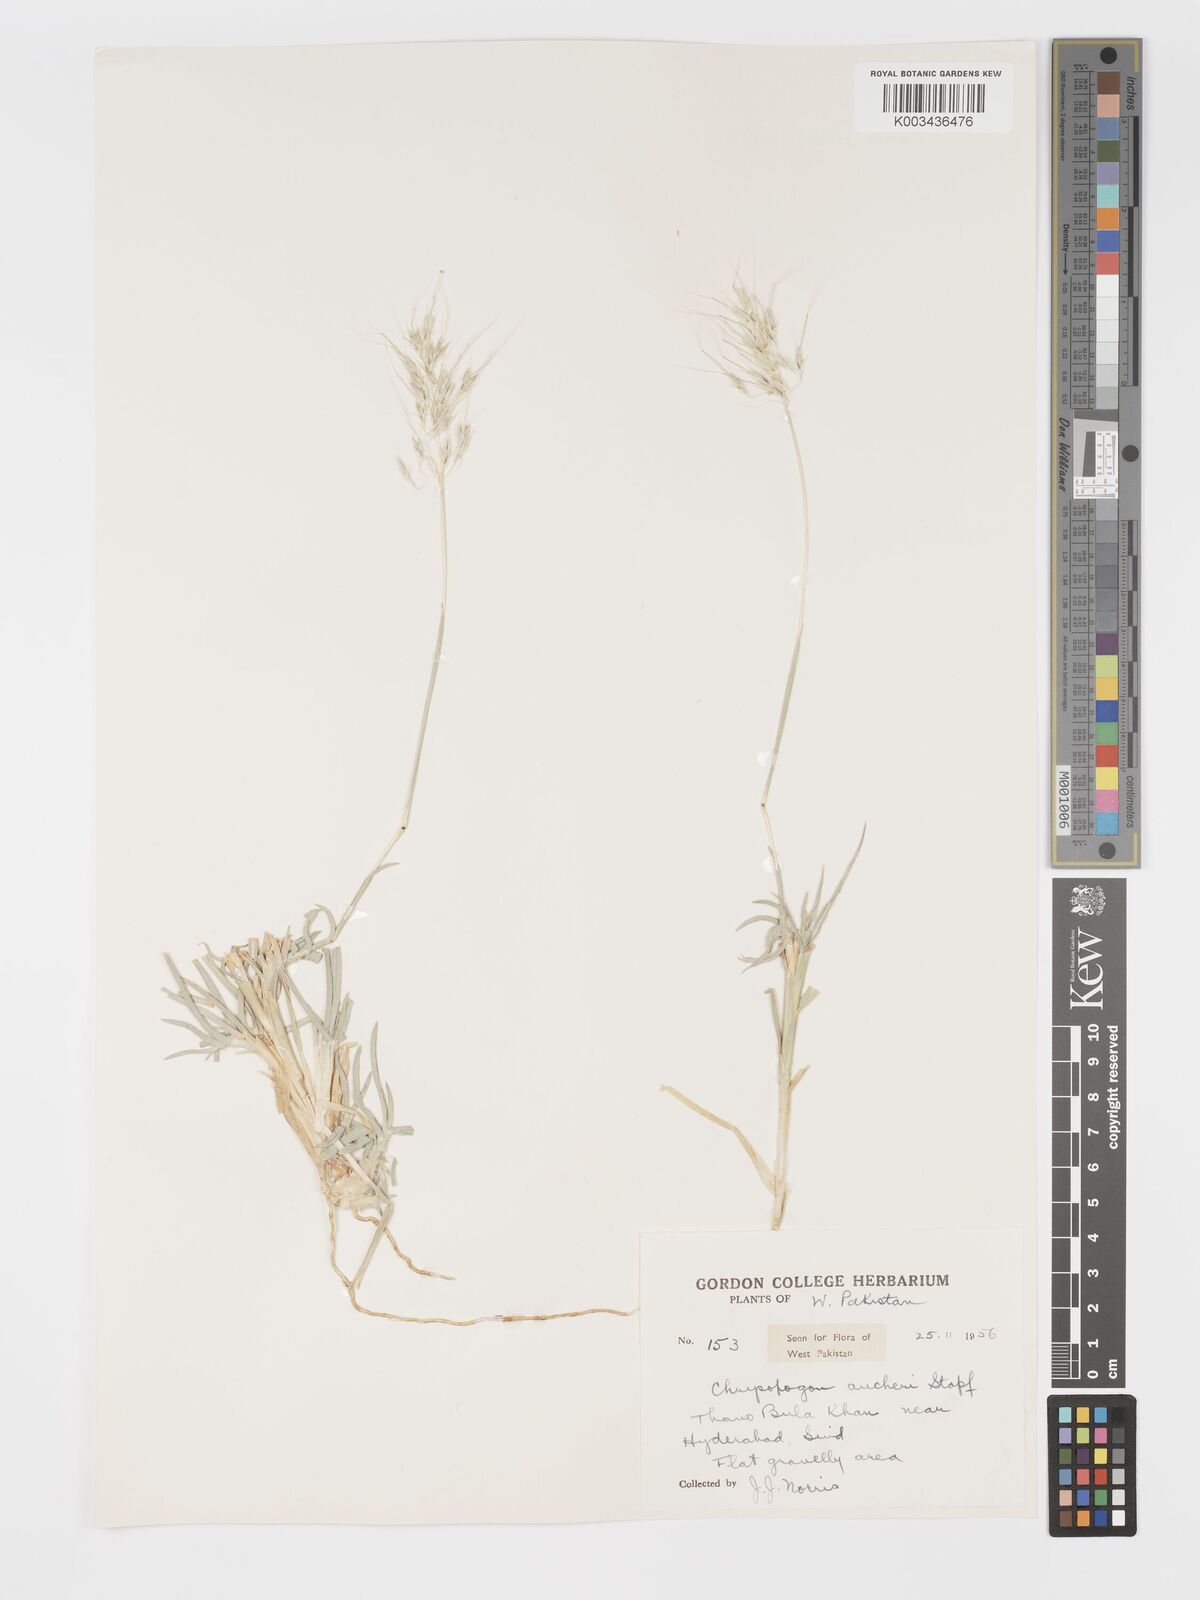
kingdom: Plantae
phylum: Tracheophyta
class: Liliopsida
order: Poales
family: Poaceae
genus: Chrysopogon
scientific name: Chrysopogon aucheri
